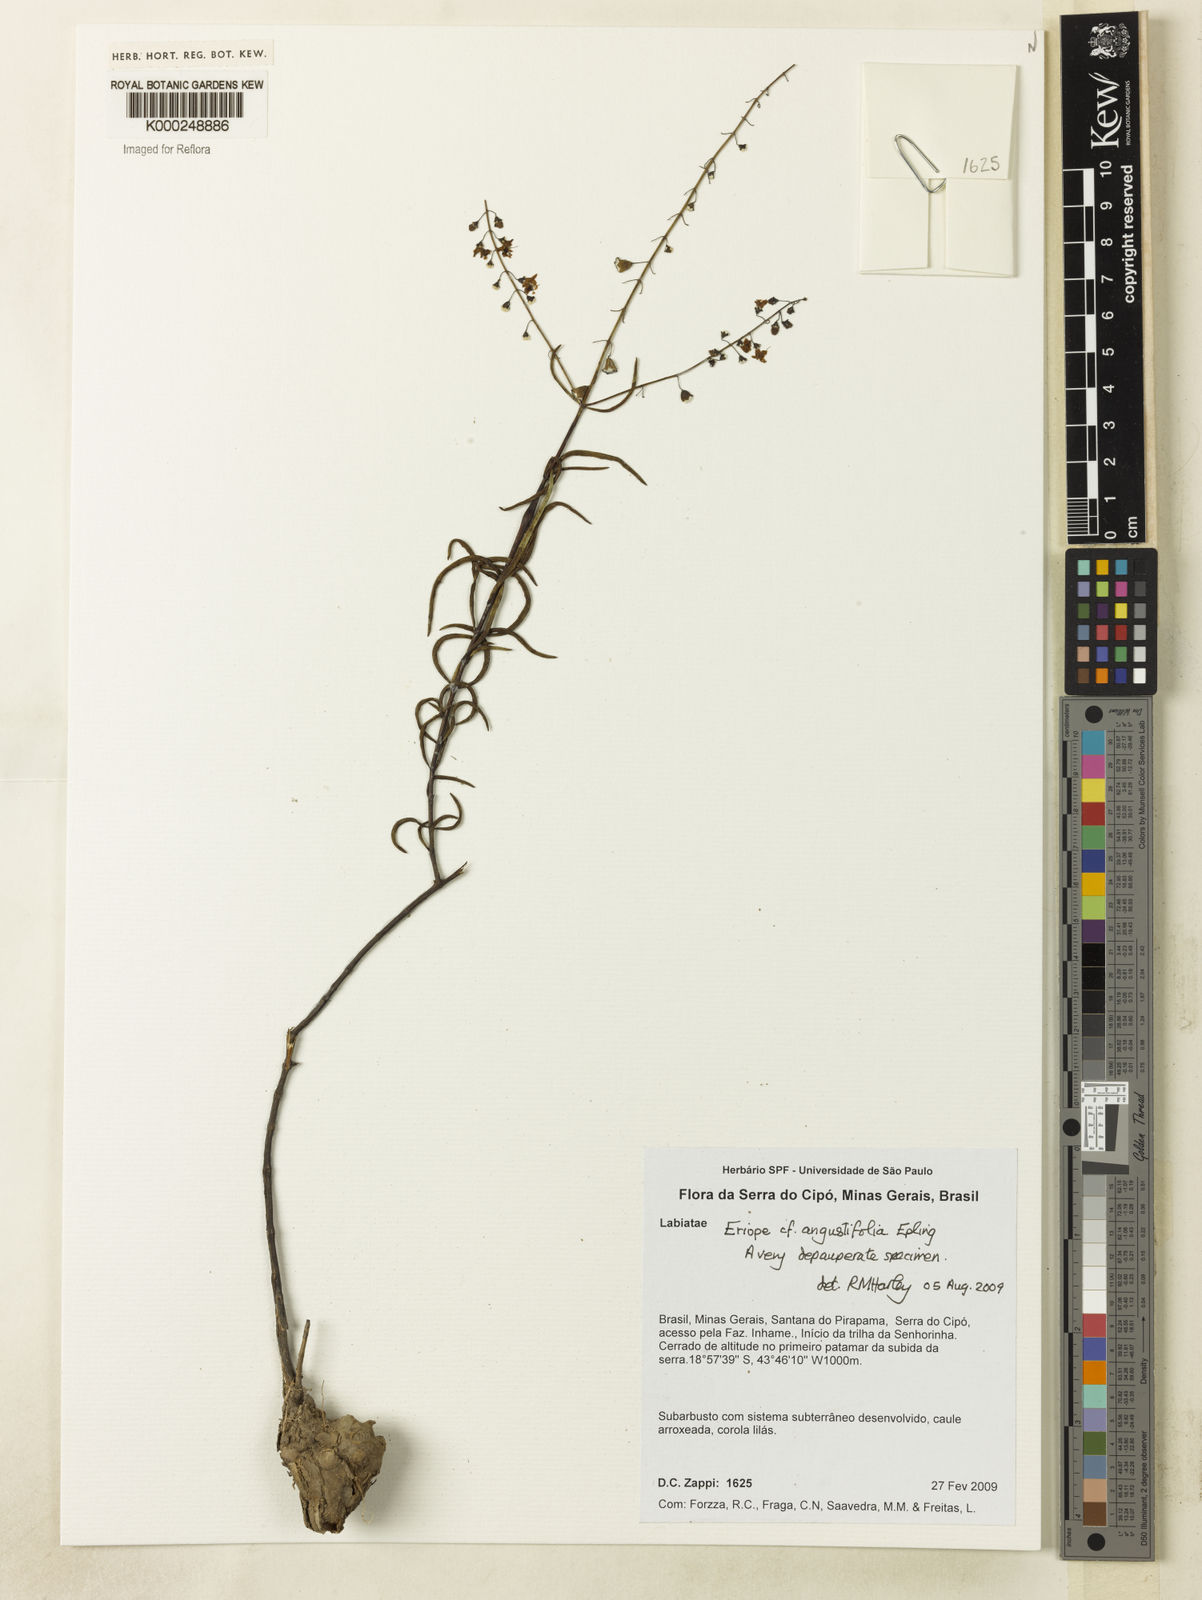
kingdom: Plantae
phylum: Tracheophyta
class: Magnoliopsida
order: Lamiales
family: Lamiaceae
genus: Eriope
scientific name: Eriope angustifolia
